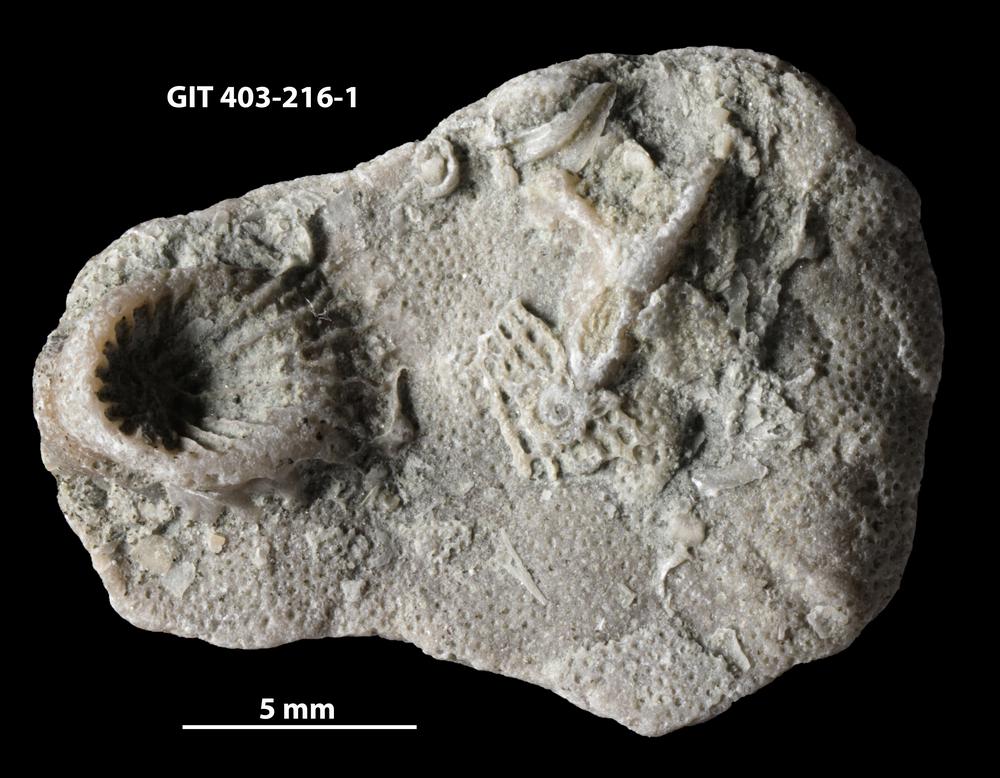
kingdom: Animalia
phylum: Bryozoa
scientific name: Bryozoa
